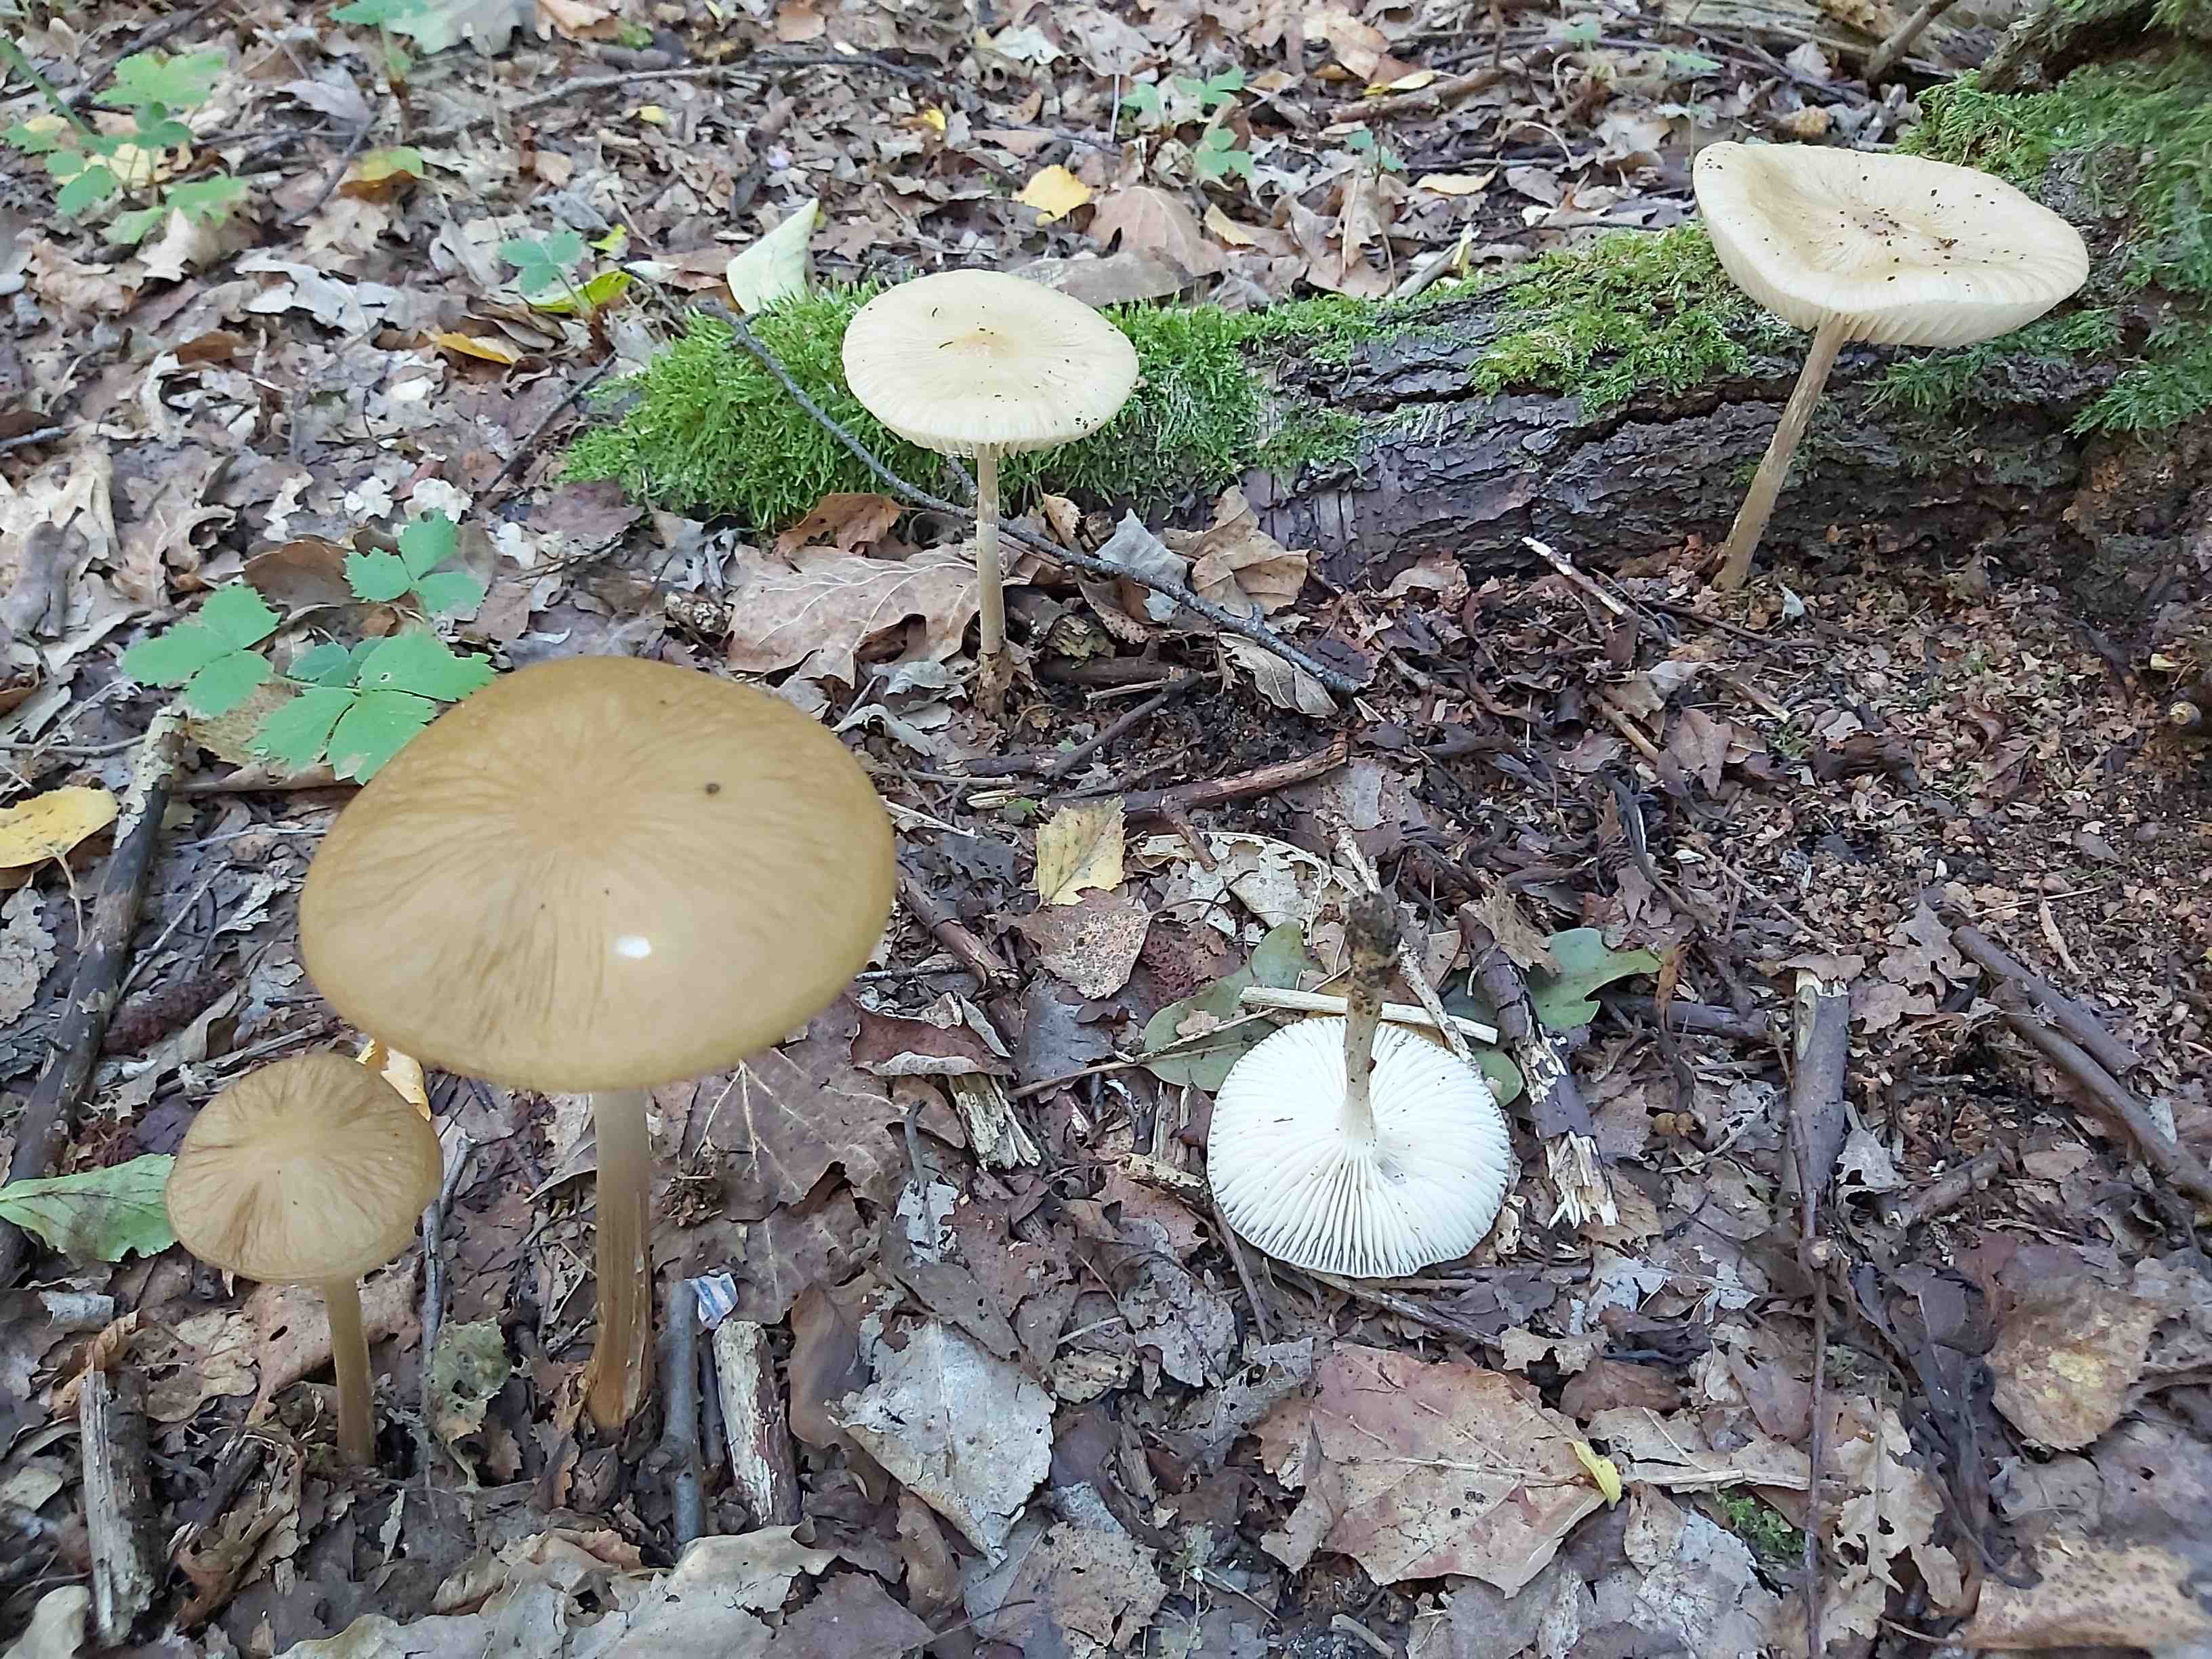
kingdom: Fungi
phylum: Basidiomycota
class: Agaricomycetes
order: Agaricales
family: Physalacriaceae
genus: Hymenopellis
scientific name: Hymenopellis radicata
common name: almindelig pælerodshat
